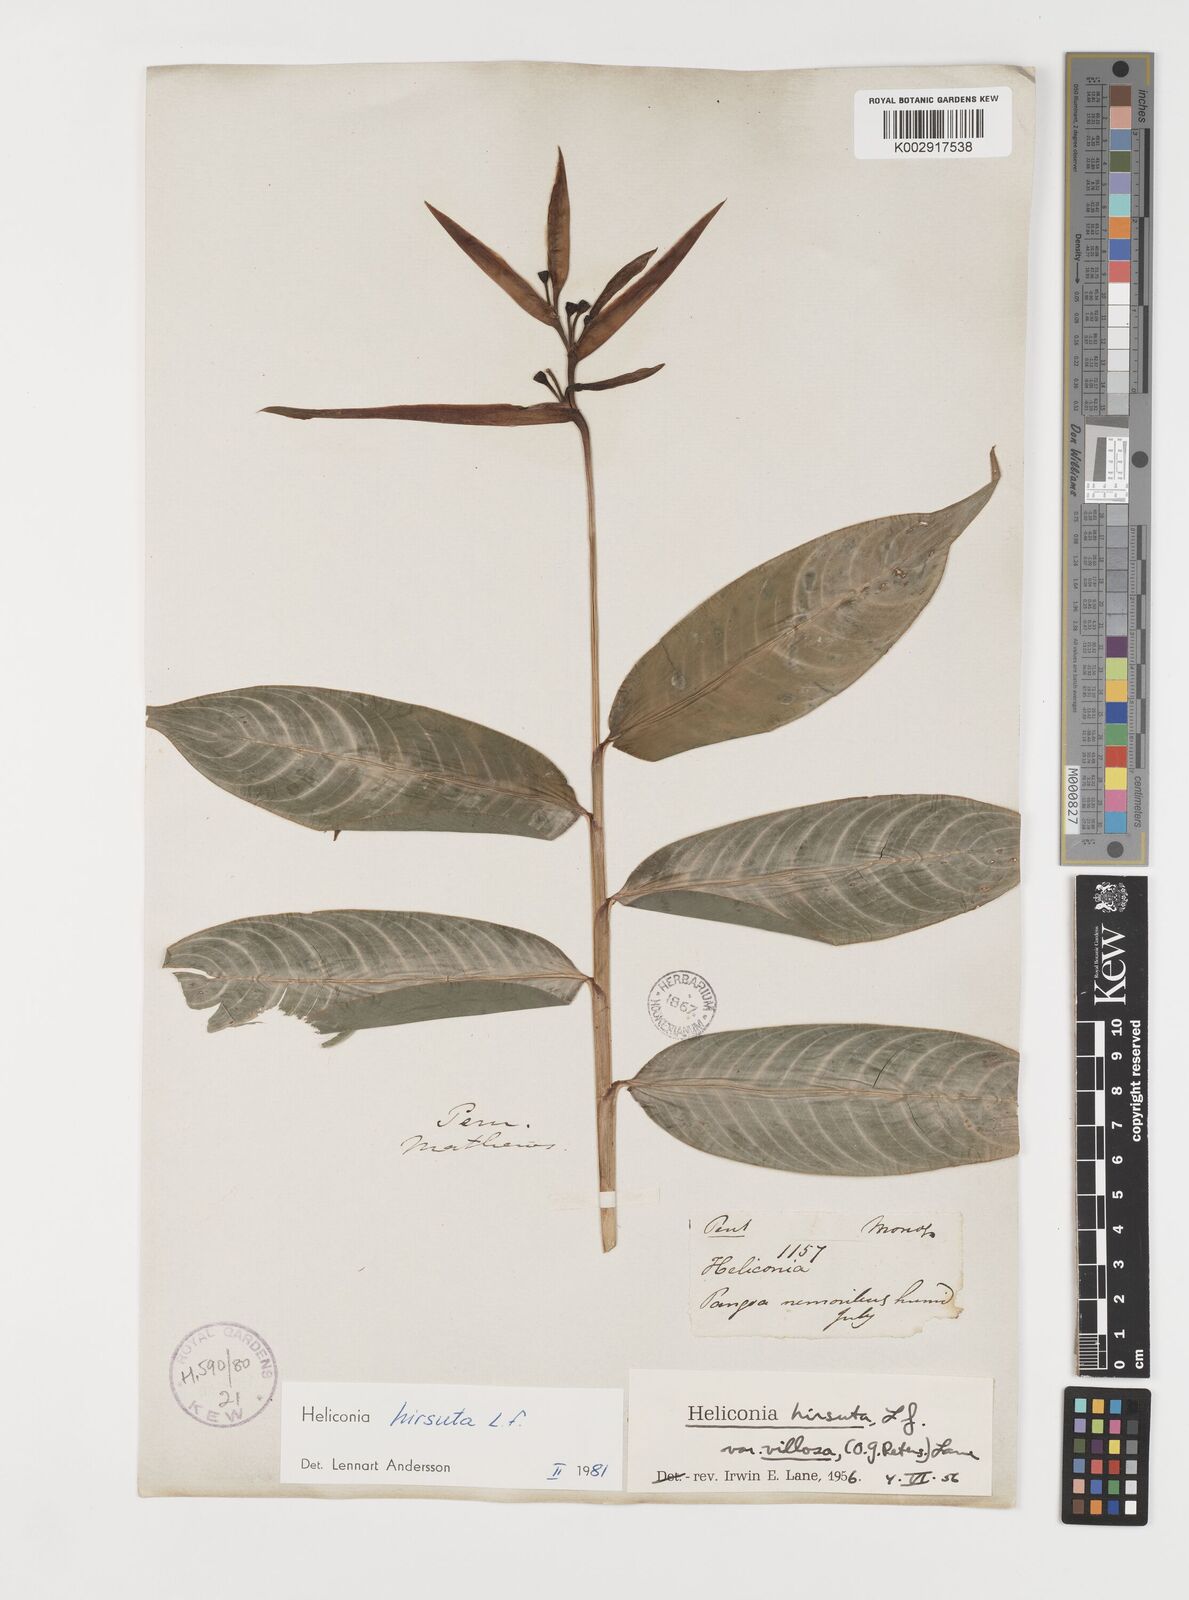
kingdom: Plantae
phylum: Tracheophyta
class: Liliopsida
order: Zingiberales
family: Heliconiaceae
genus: Heliconia
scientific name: Heliconia hirsuta
